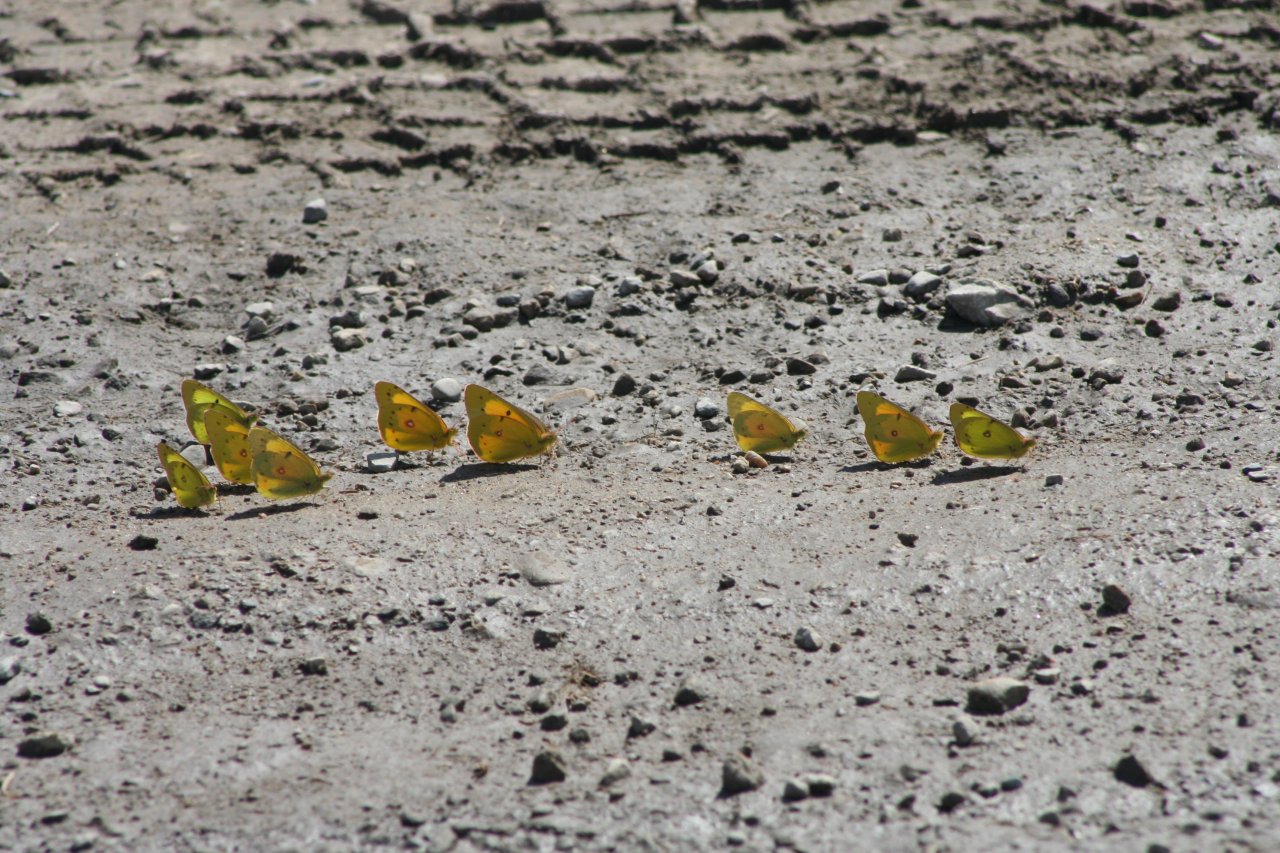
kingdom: Animalia
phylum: Arthropoda
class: Insecta
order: Lepidoptera
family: Pieridae
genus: Colias
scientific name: Colias eurytheme
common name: Orange Sulphur
